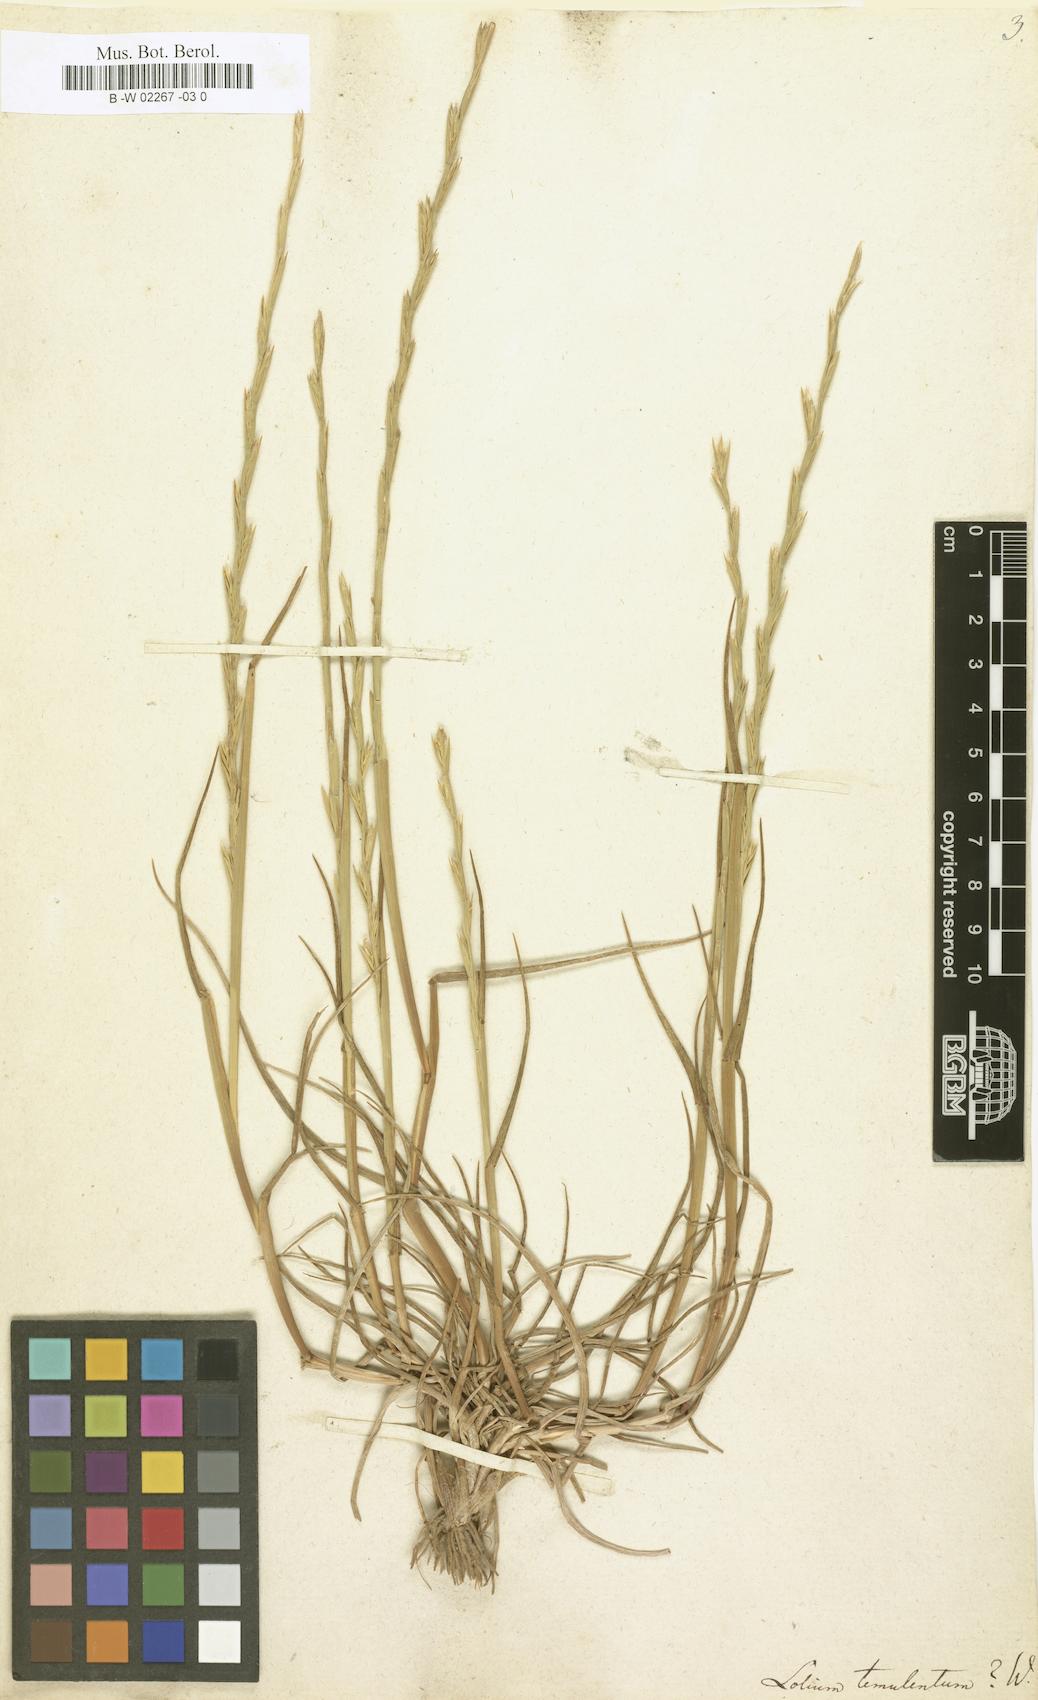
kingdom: Plantae
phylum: Tracheophyta
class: Liliopsida
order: Poales
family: Poaceae
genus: Lolium
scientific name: Lolium temulentum
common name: Darnel
